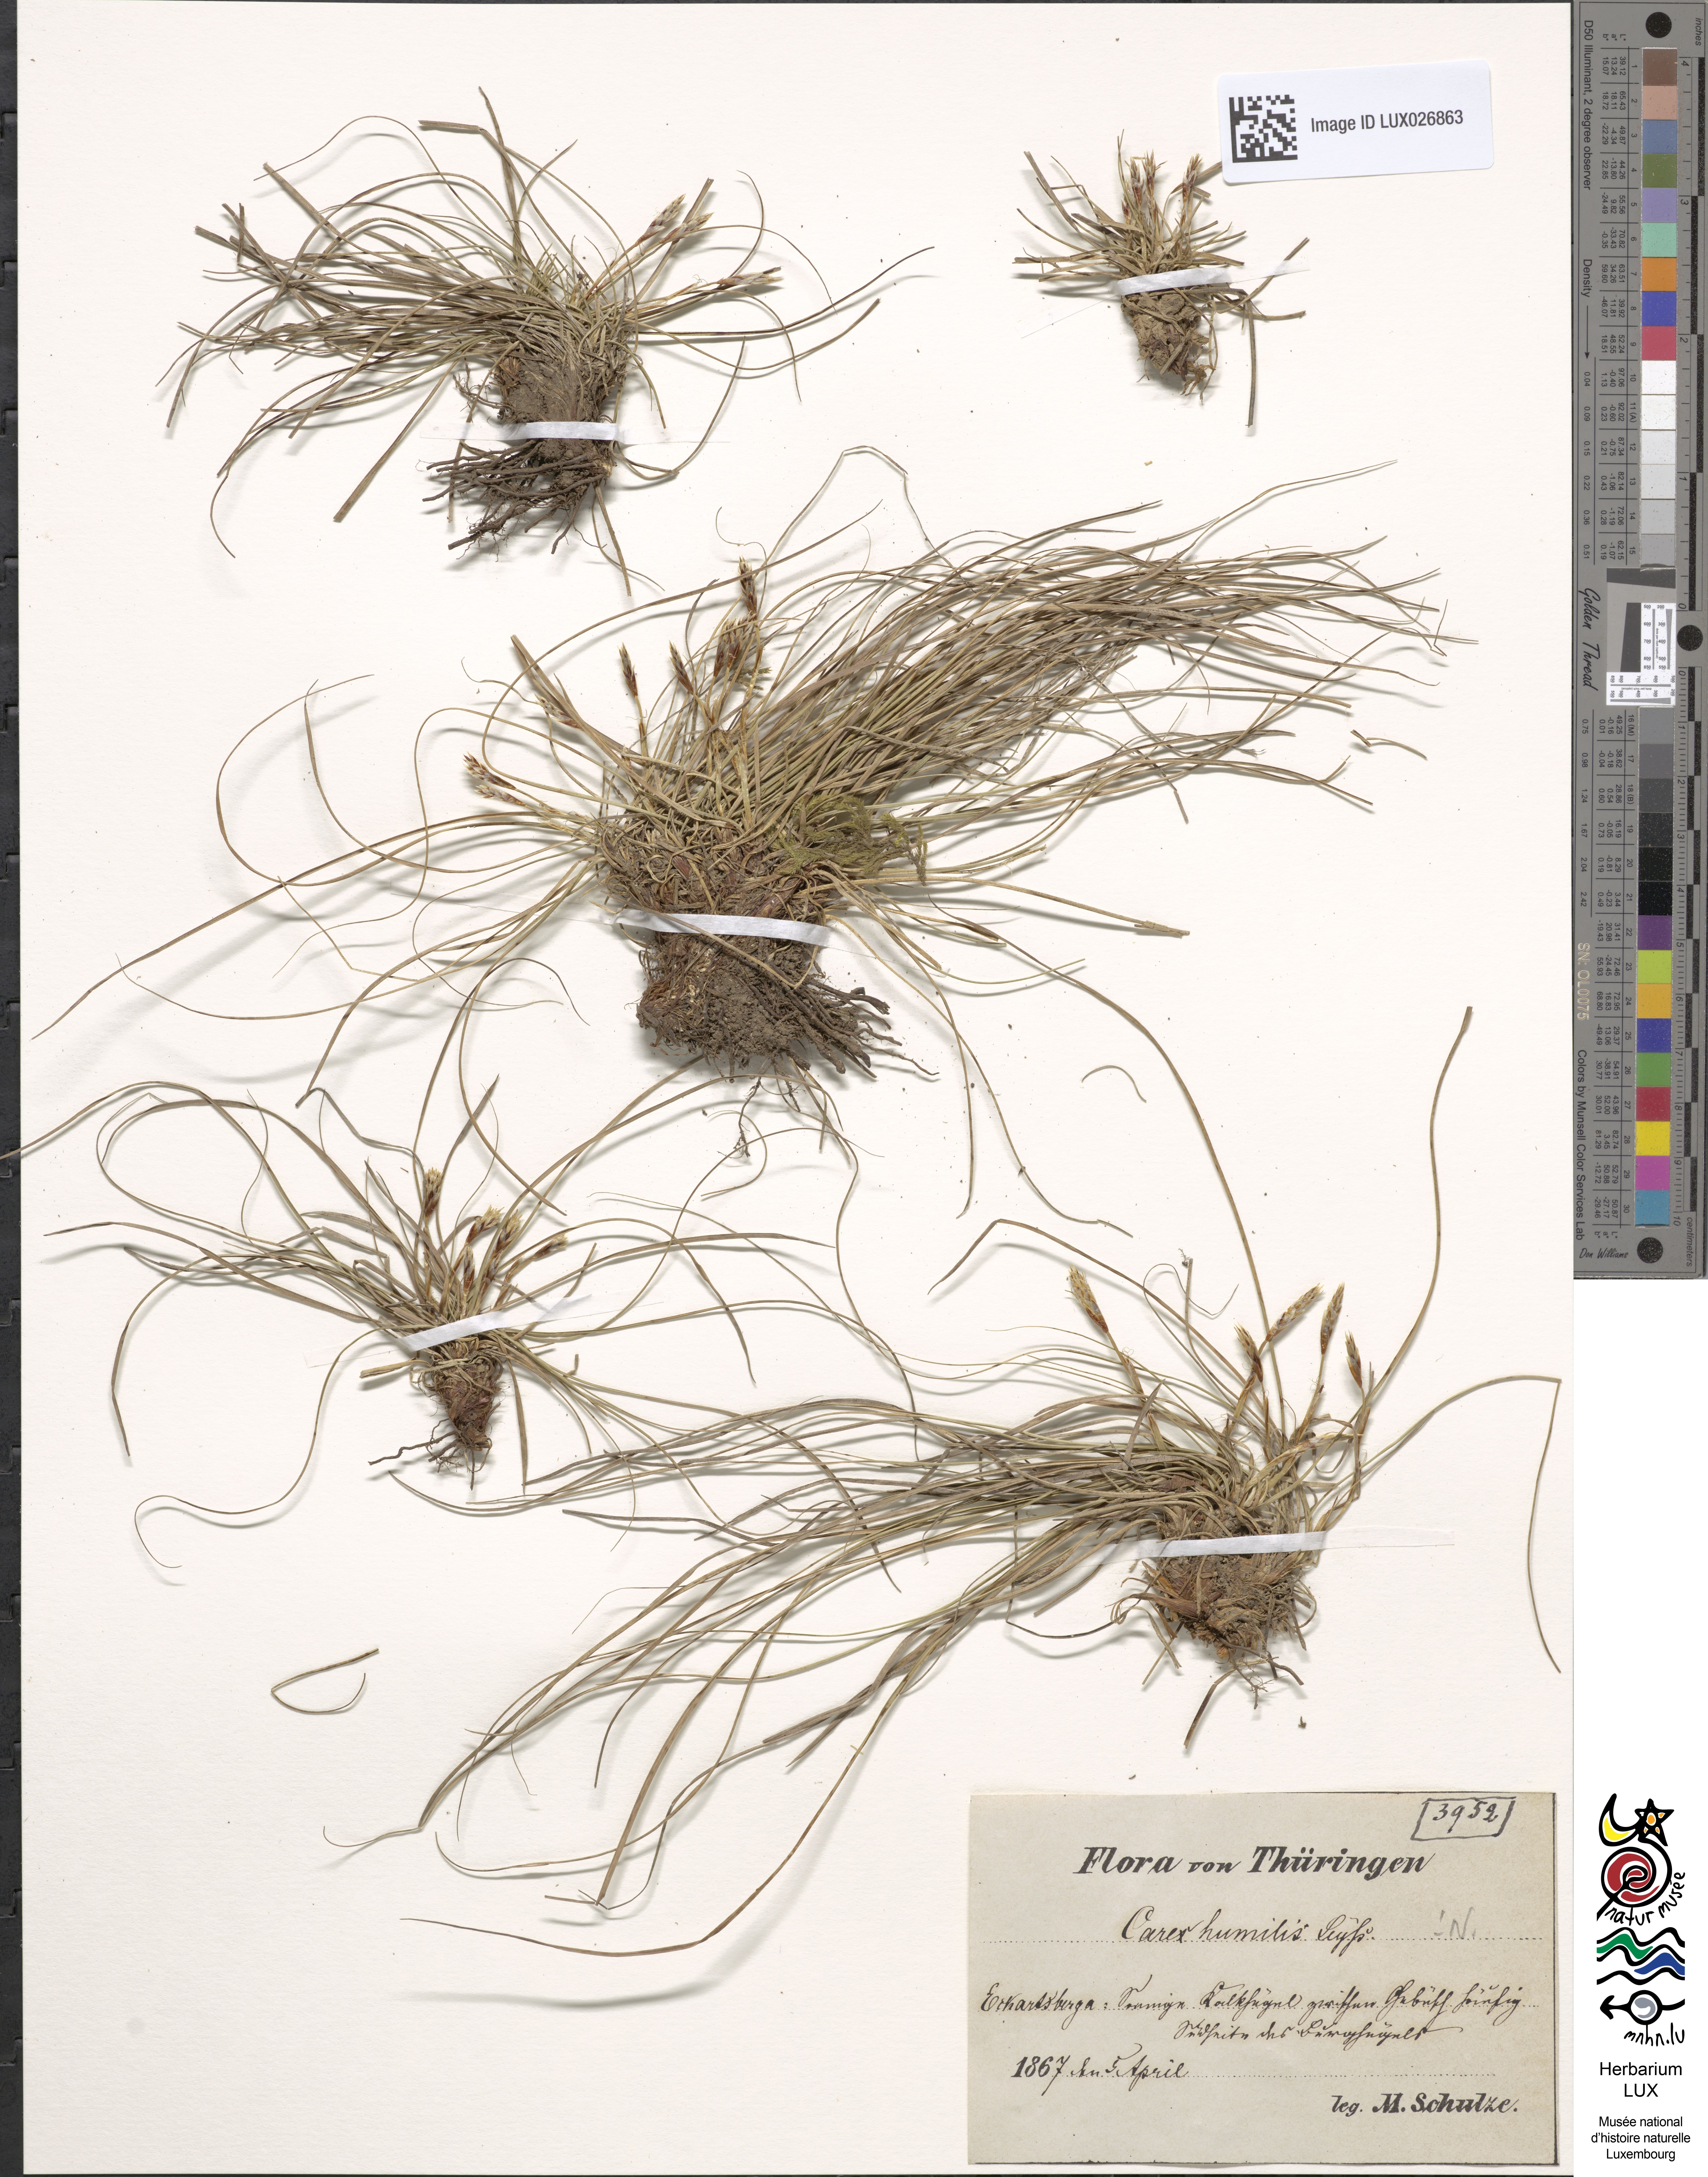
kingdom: Plantae
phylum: Tracheophyta
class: Liliopsida
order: Poales
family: Cyperaceae
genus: Carex
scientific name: Carex humilis
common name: Dwarf sedge
